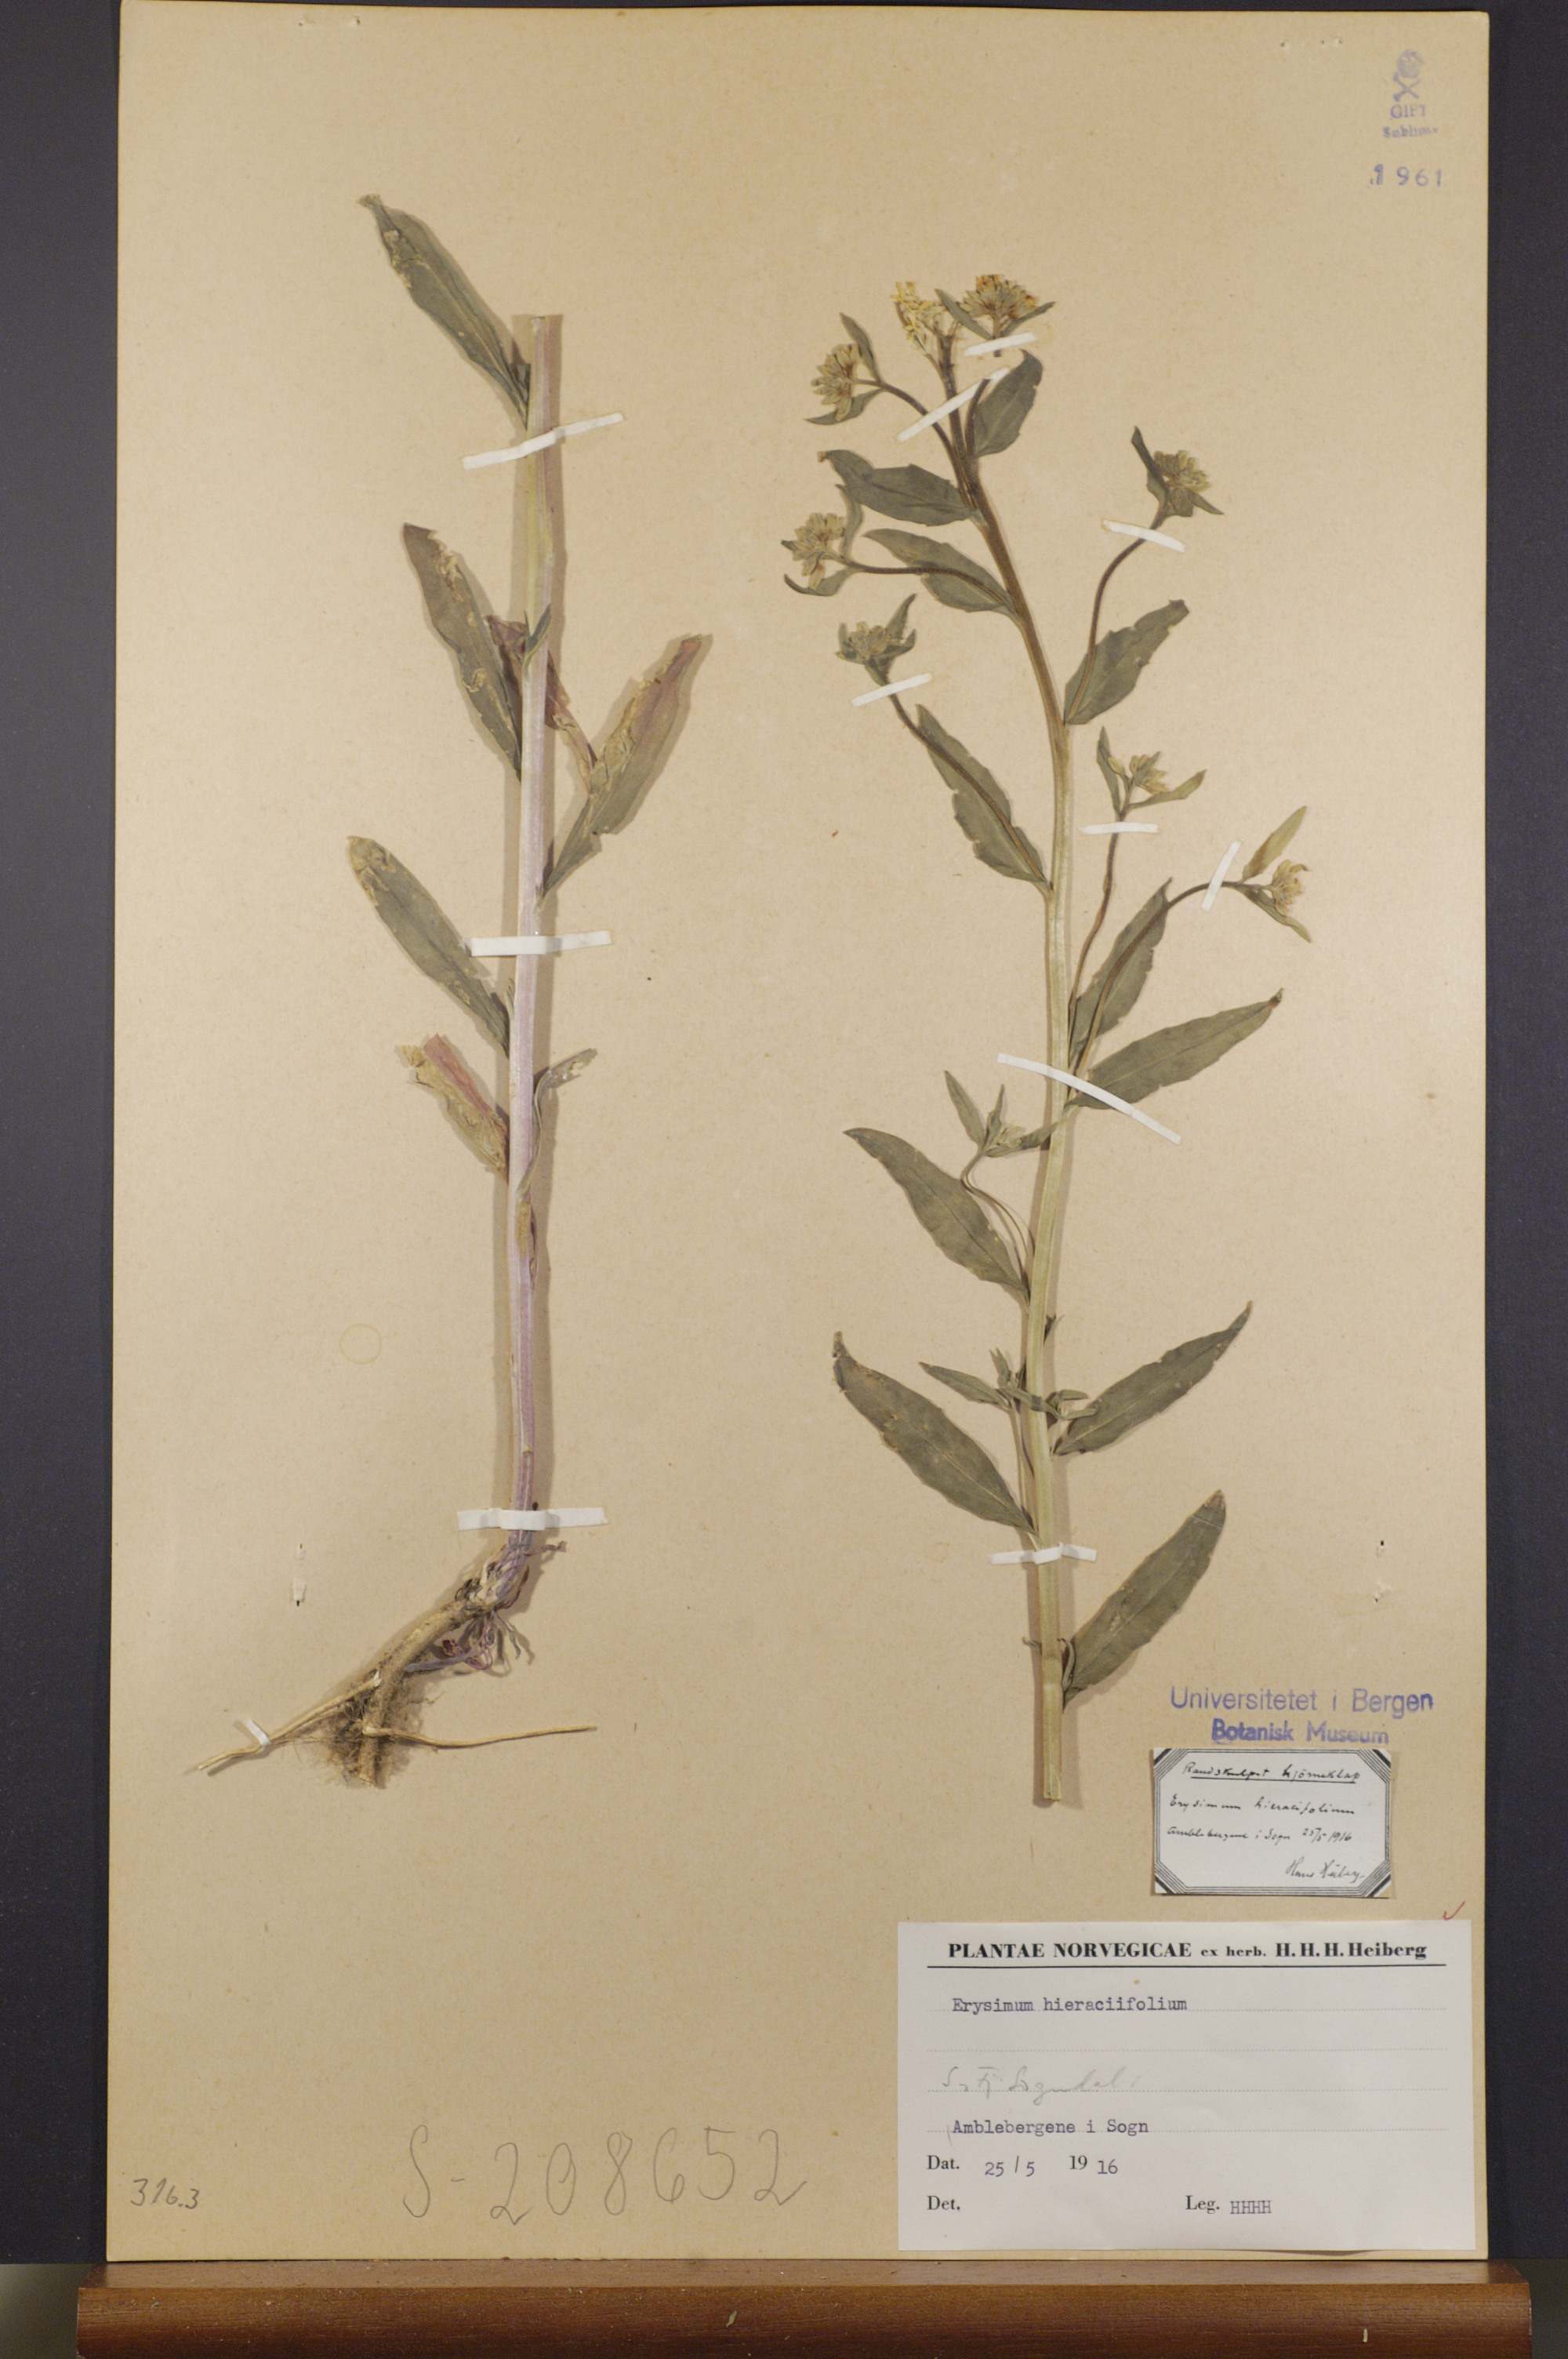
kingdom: Plantae
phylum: Tracheophyta
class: Magnoliopsida
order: Brassicales
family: Brassicaceae
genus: Erysimum
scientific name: Erysimum hieraciifolium
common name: European wallflower
